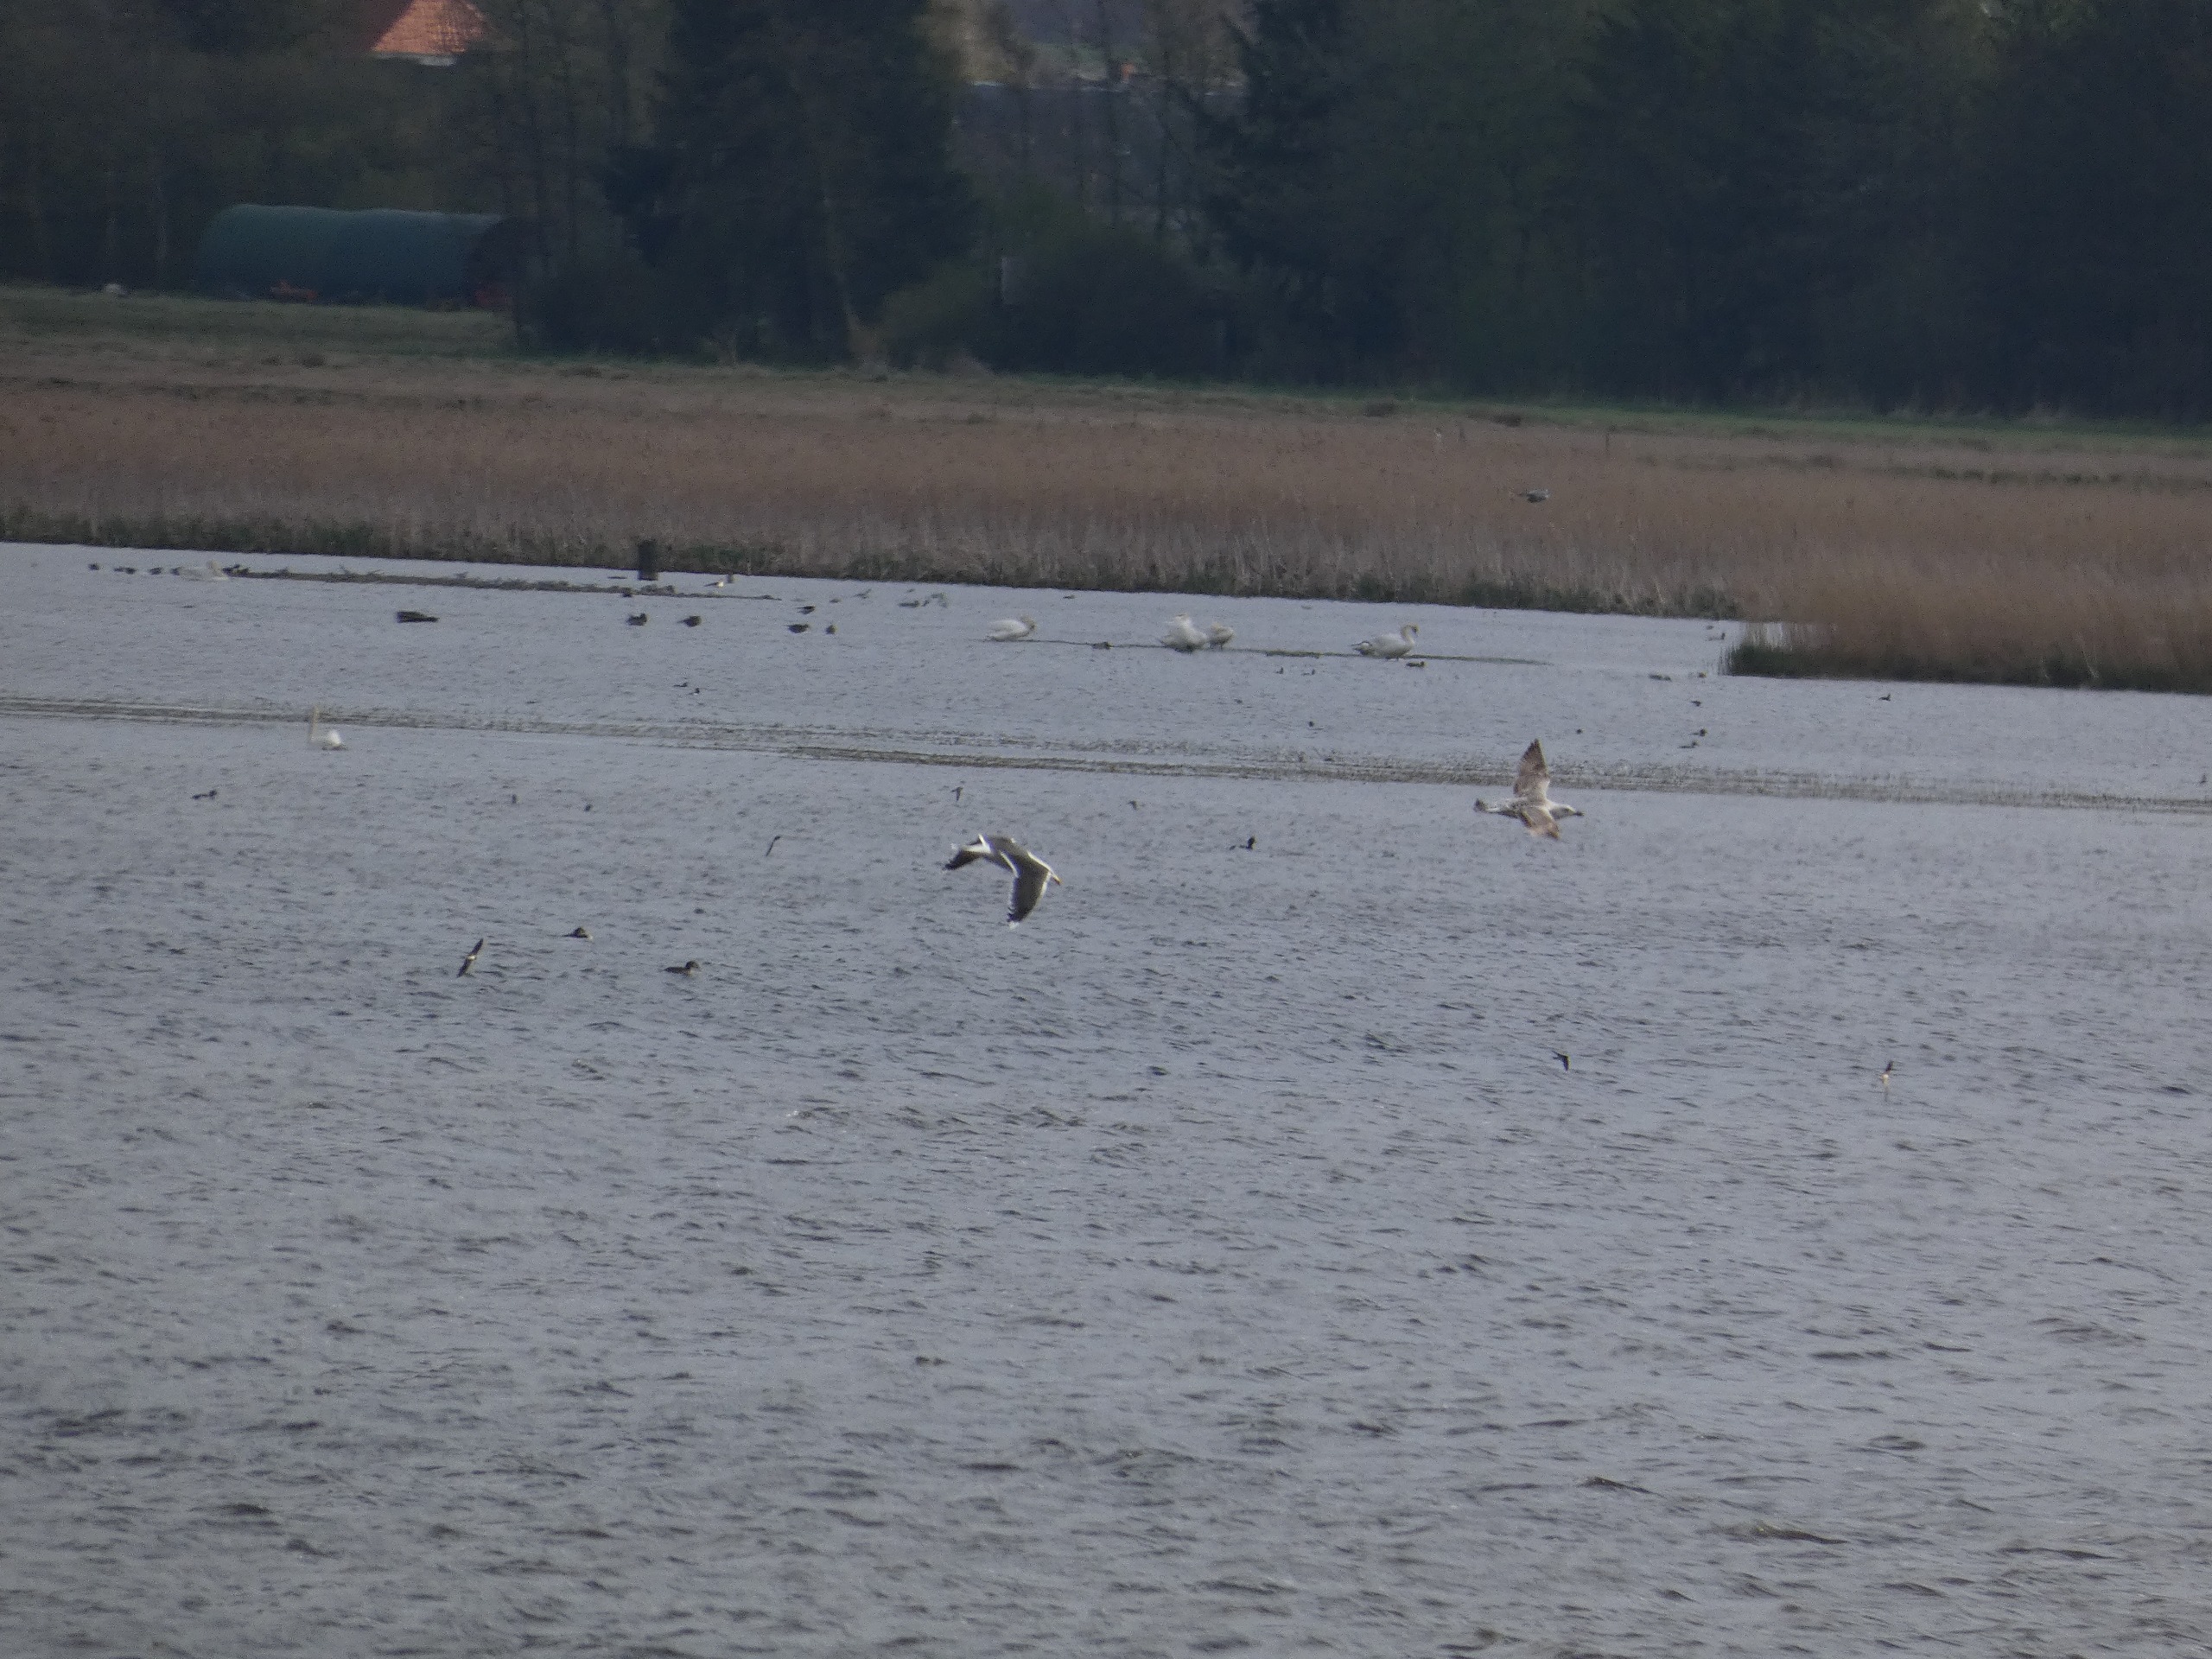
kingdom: Animalia
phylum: Chordata
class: Aves
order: Charadriiformes
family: Laridae
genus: Larus
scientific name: Larus marinus
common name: Svartbag
